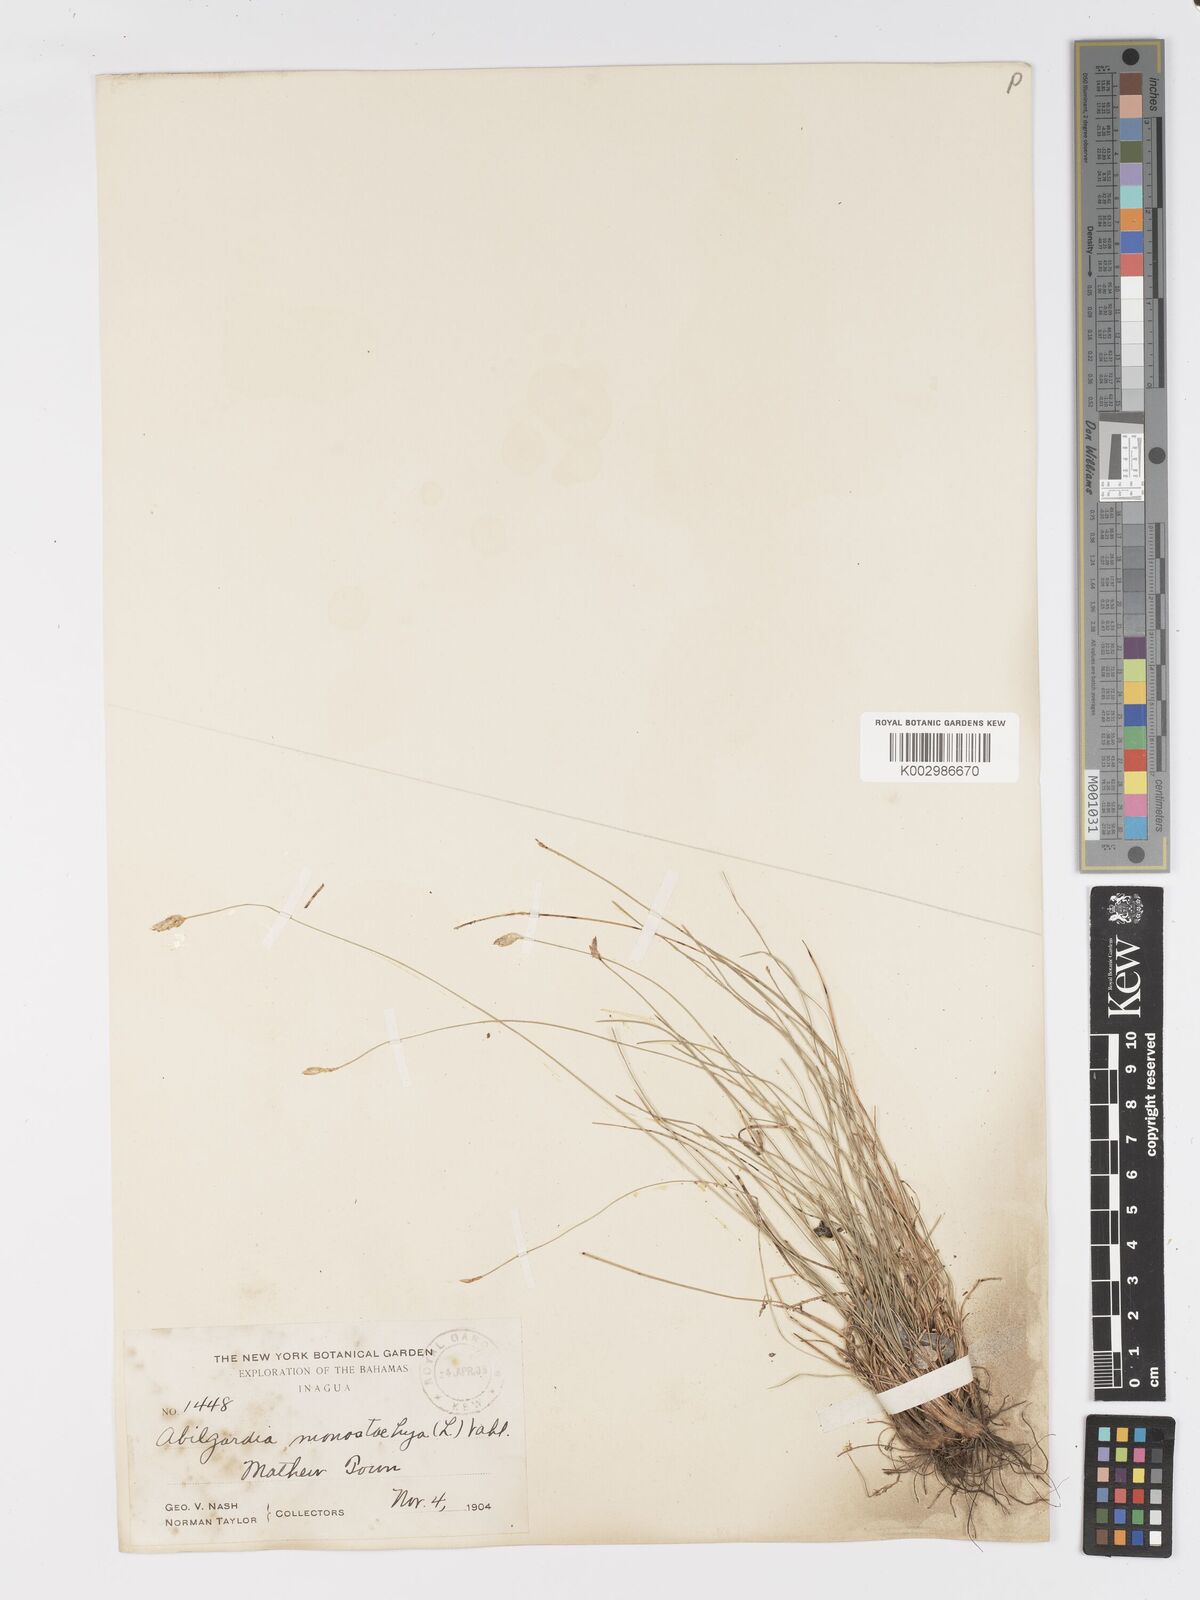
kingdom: Plantae
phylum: Tracheophyta
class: Liliopsida
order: Poales
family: Cyperaceae
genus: Abildgaardia
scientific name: Abildgaardia ovata
